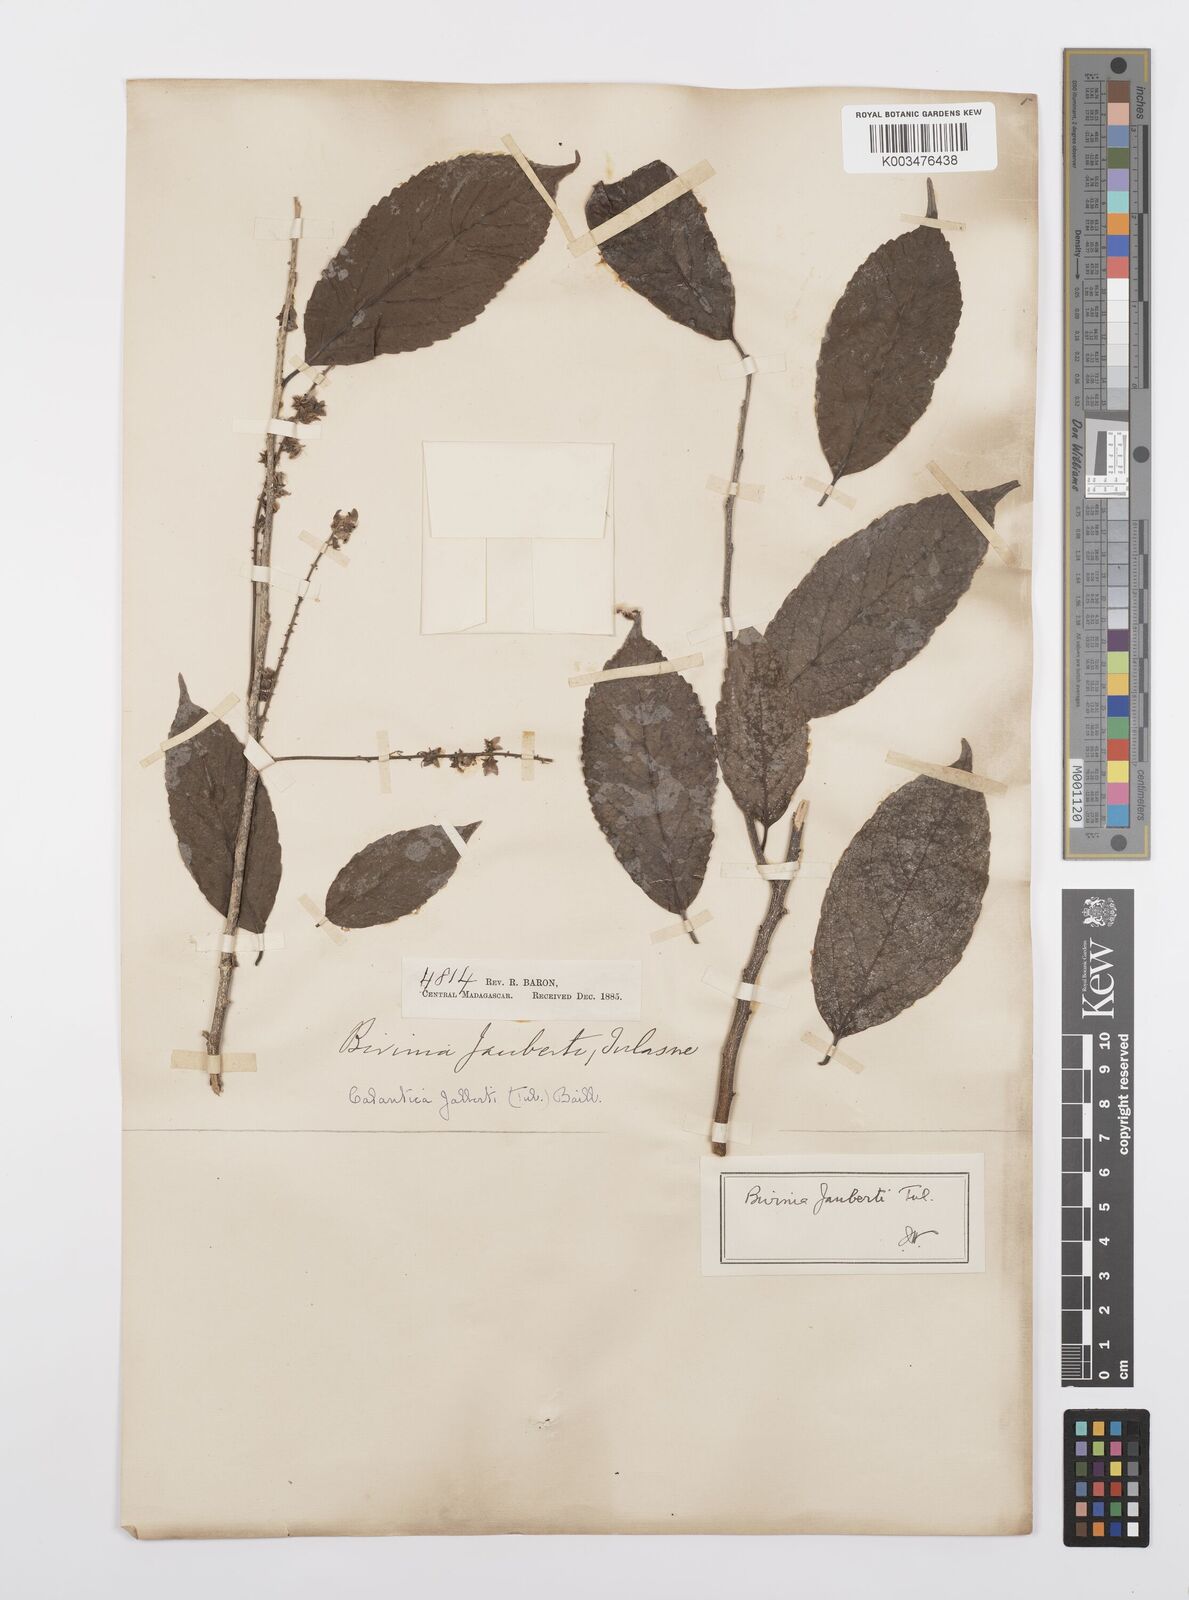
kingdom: Plantae
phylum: Tracheophyta
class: Magnoliopsida
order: Malpighiales
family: Salicaceae
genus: Bivinia
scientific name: Bivinia jalbertii
